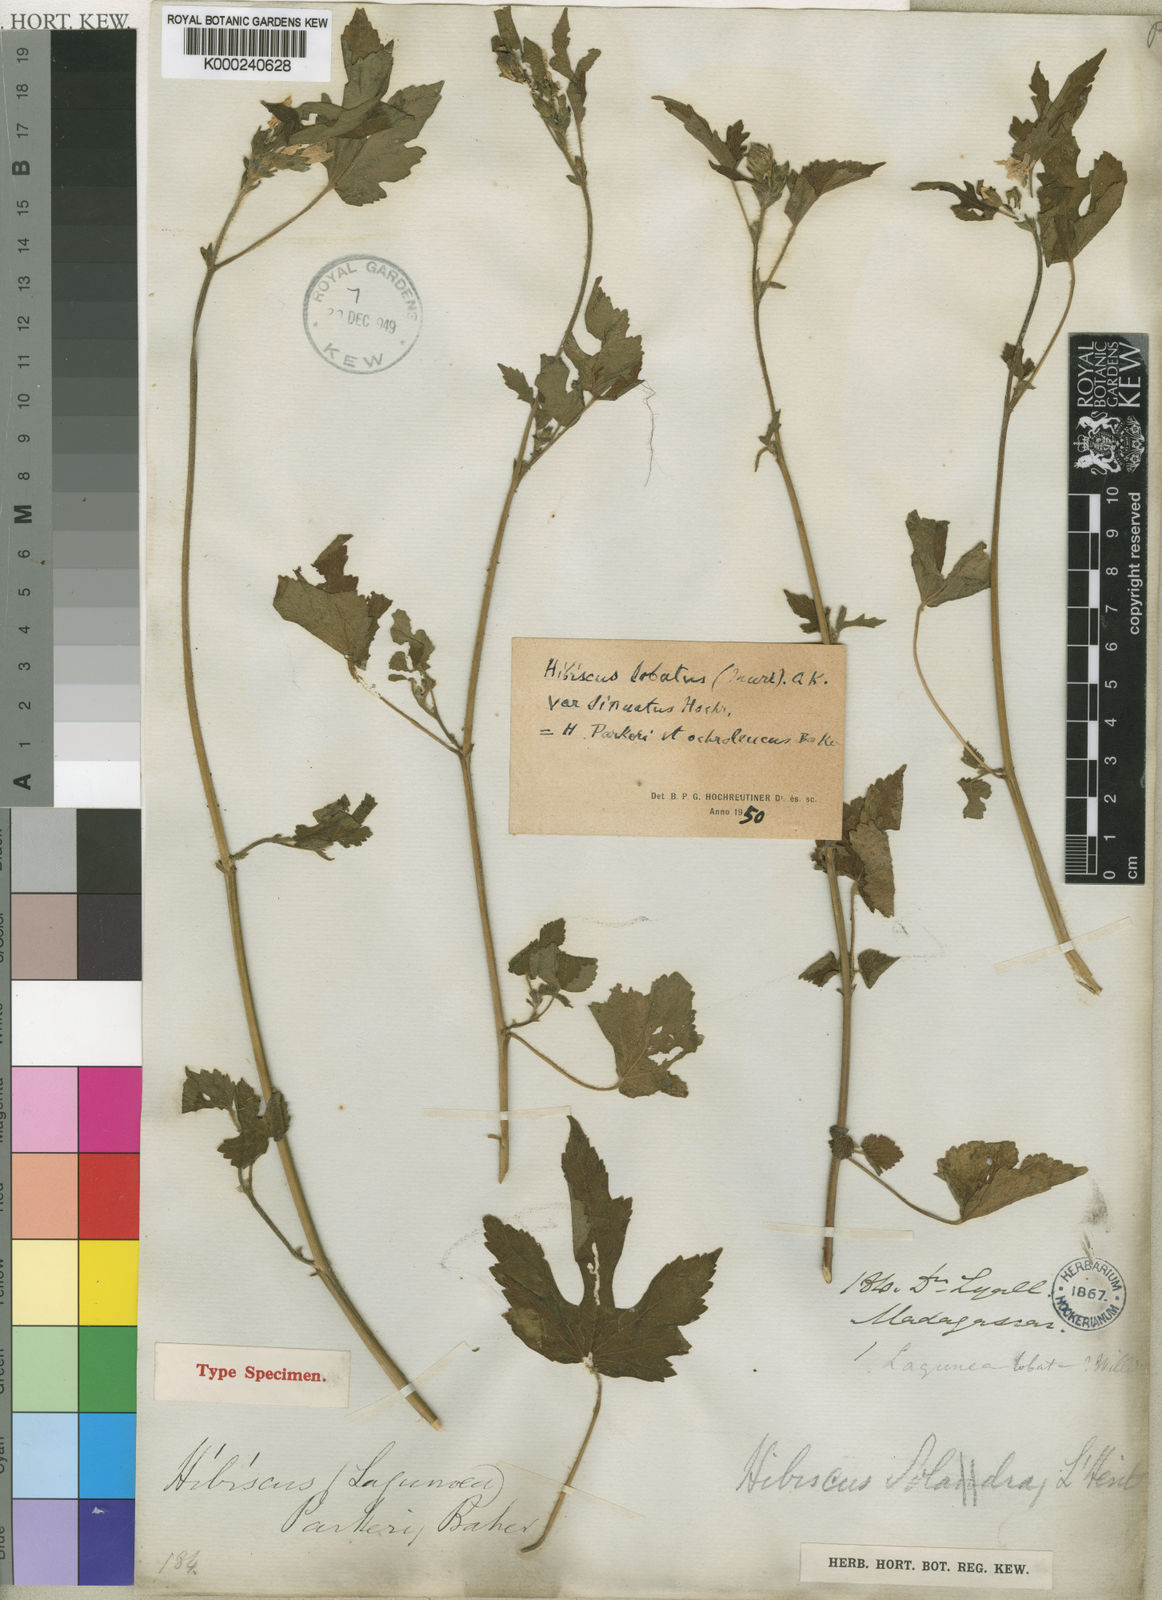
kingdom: Plantae
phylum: Tracheophyta
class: Magnoliopsida
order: Malvales
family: Malvaceae
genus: Hibiscus
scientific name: Hibiscus
